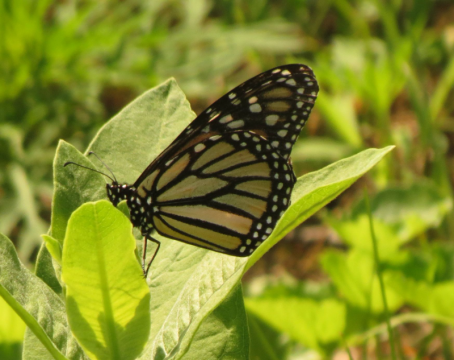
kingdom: Animalia
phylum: Arthropoda
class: Insecta
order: Lepidoptera
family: Nymphalidae
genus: Danaus
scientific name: Danaus plexippus
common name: Monarch
